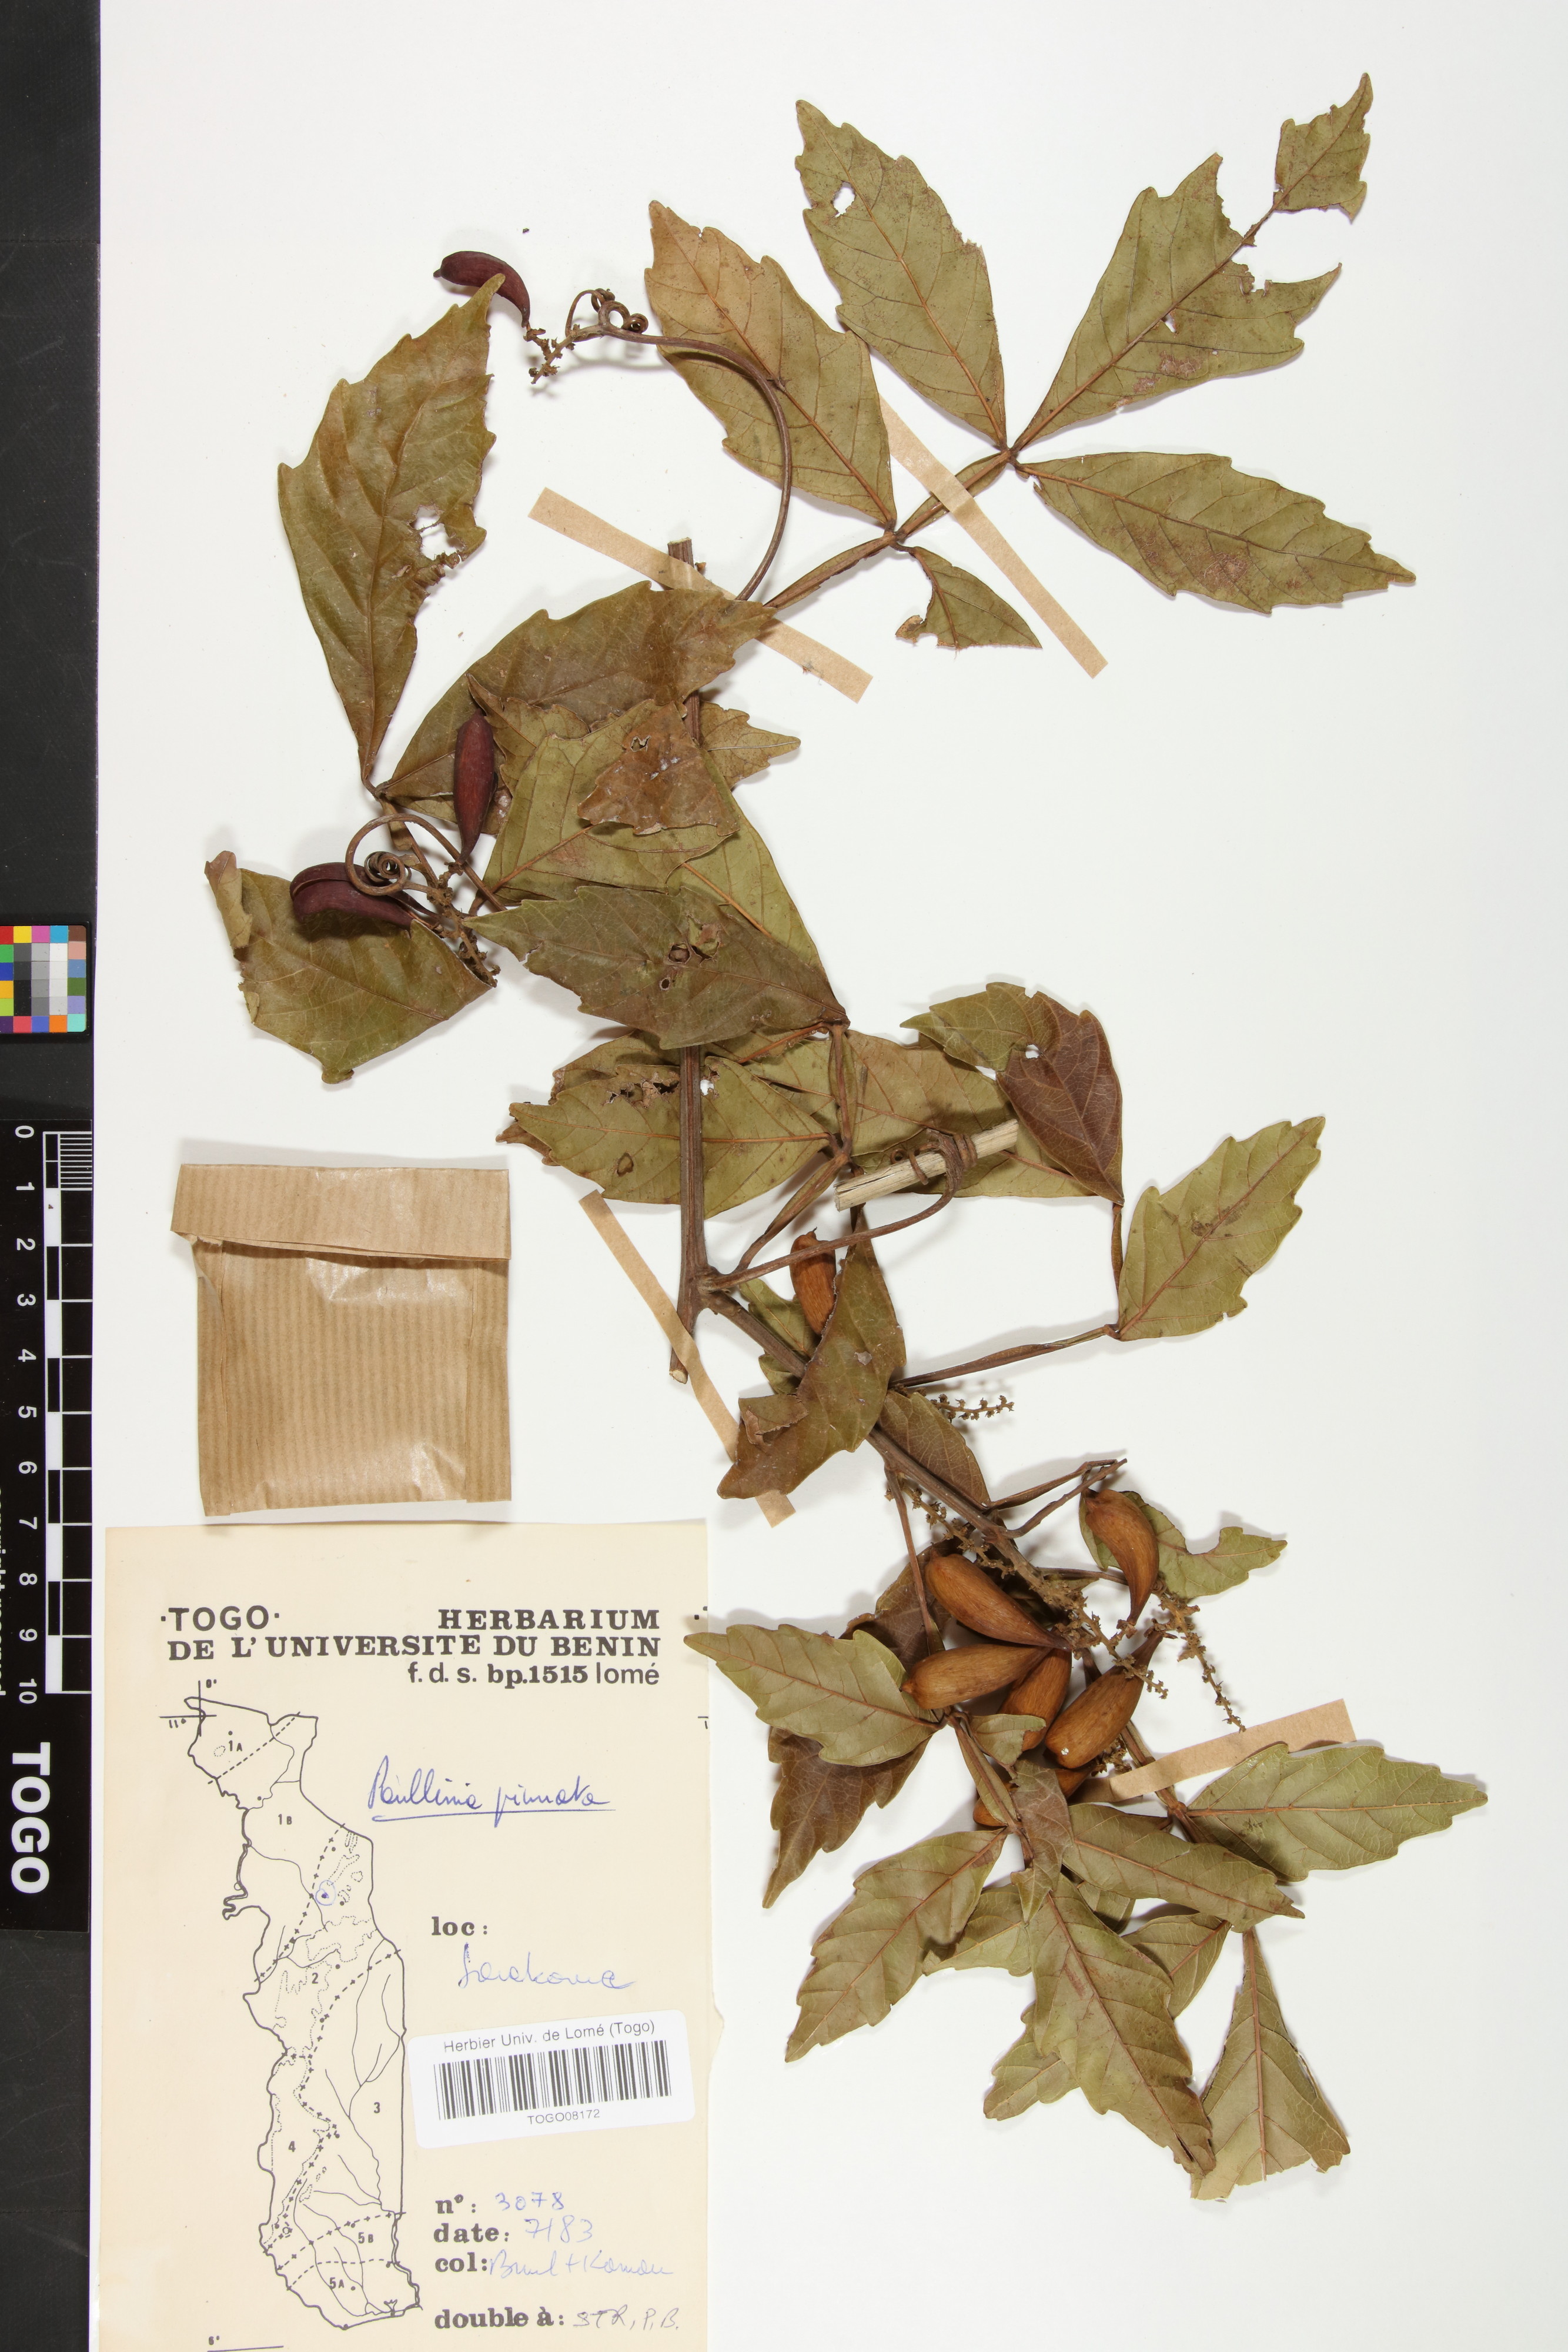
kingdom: Plantae
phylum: Tracheophyta
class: Magnoliopsida
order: Sapindales
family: Sapindaceae
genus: Paullinia
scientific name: Paullinia pinnata
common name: Barbasco
